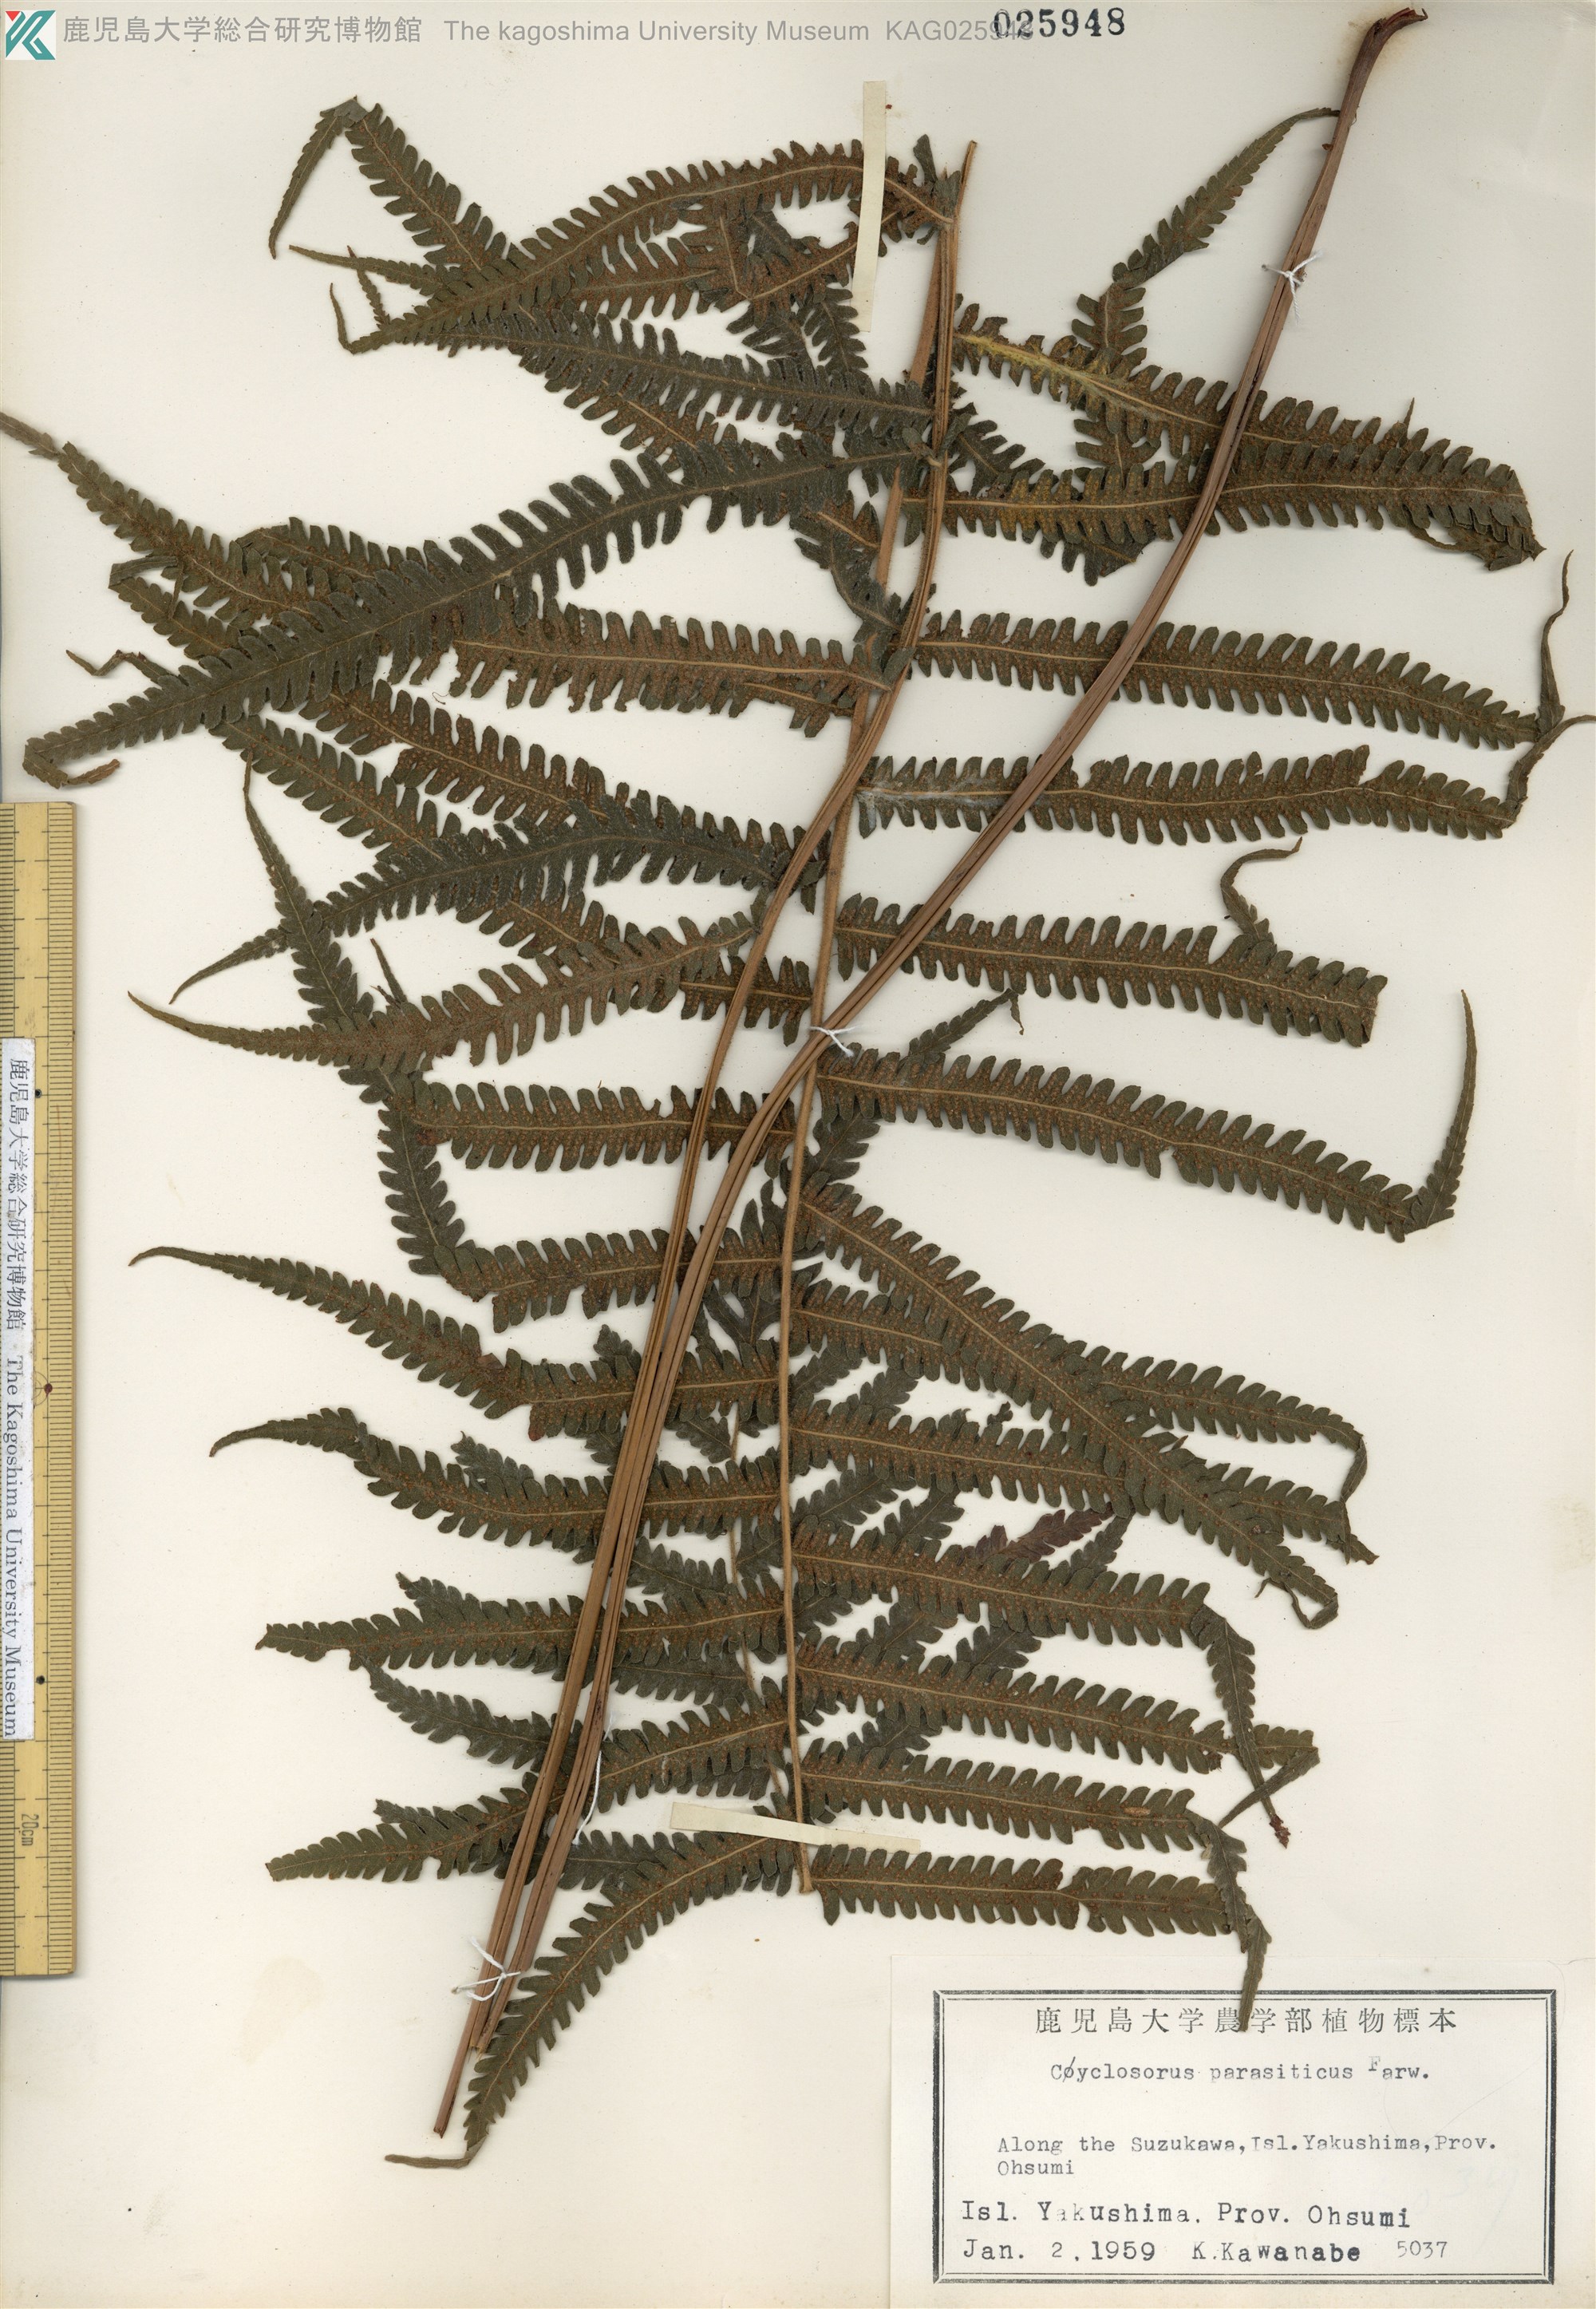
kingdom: Plantae
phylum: Tracheophyta
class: Polypodiopsida
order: Polypodiales
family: Thelypteridaceae
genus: Christella
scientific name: Christella parasitica
